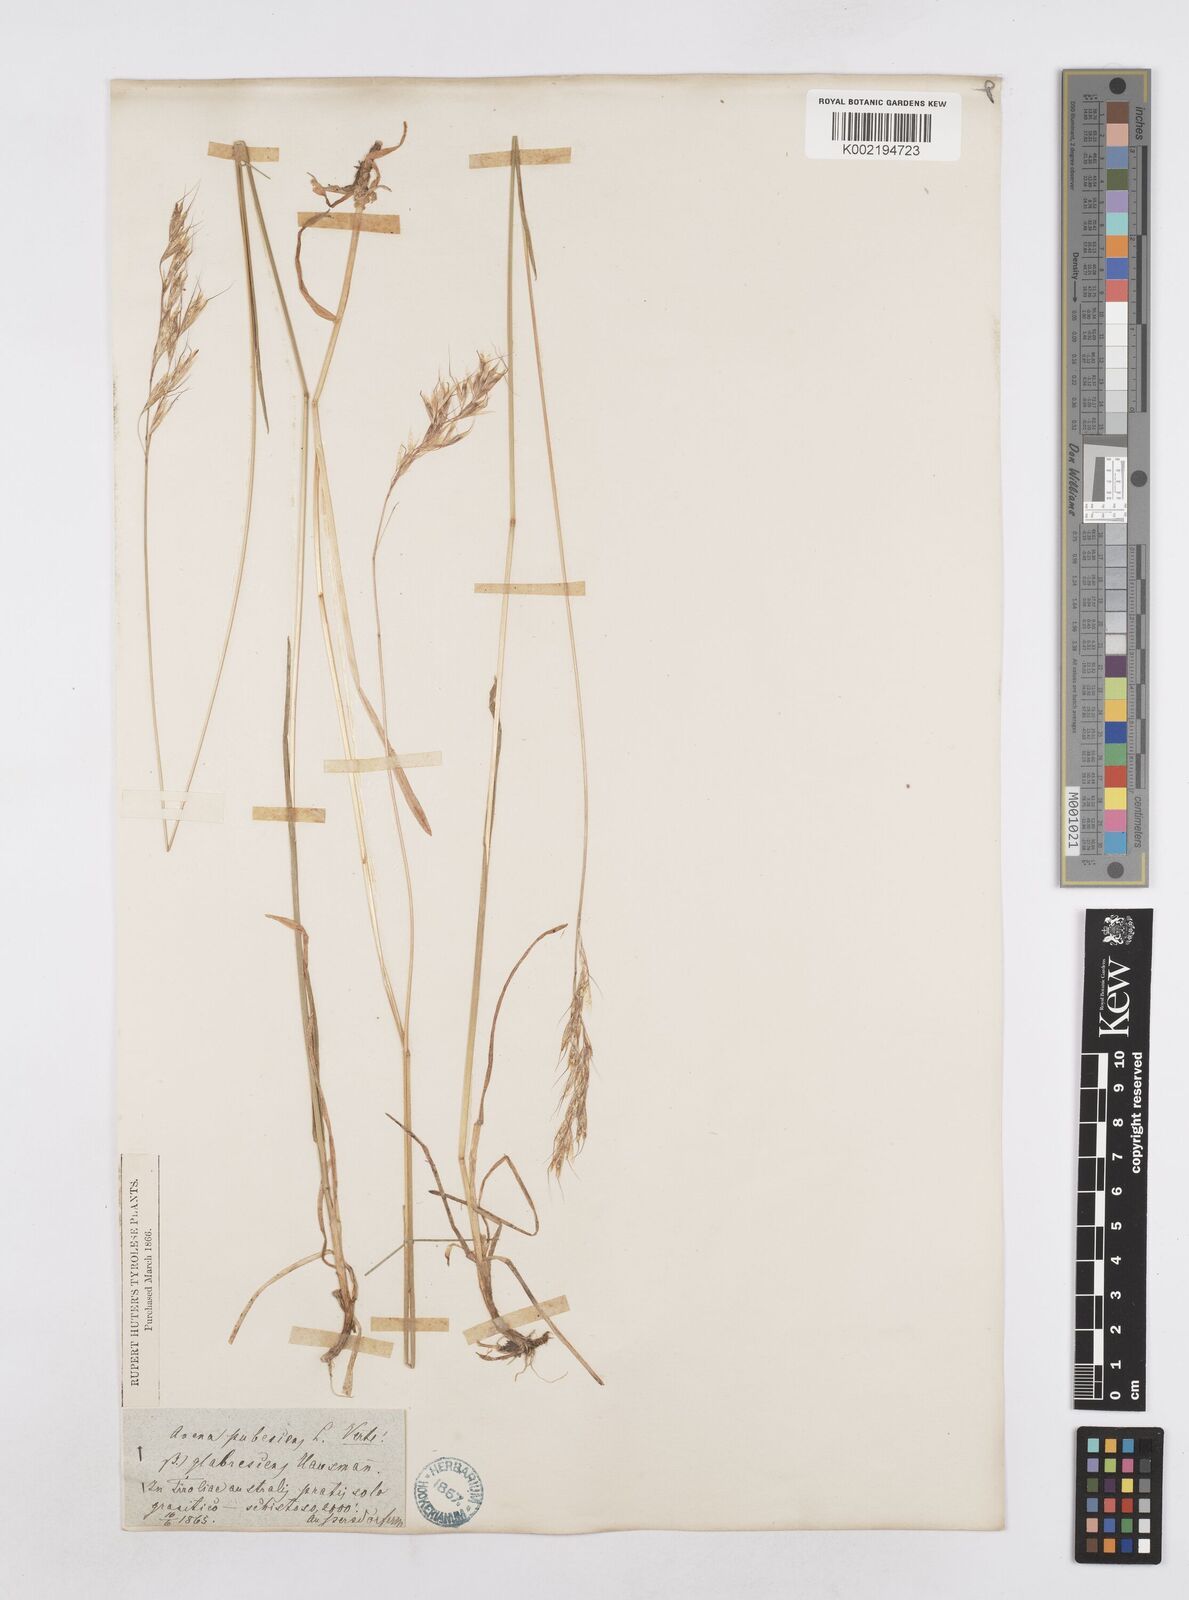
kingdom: Plantae
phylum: Tracheophyta
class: Liliopsida
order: Poales
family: Poaceae
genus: Avenula
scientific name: Avenula pubescens
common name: Downy alpine oatgrass
